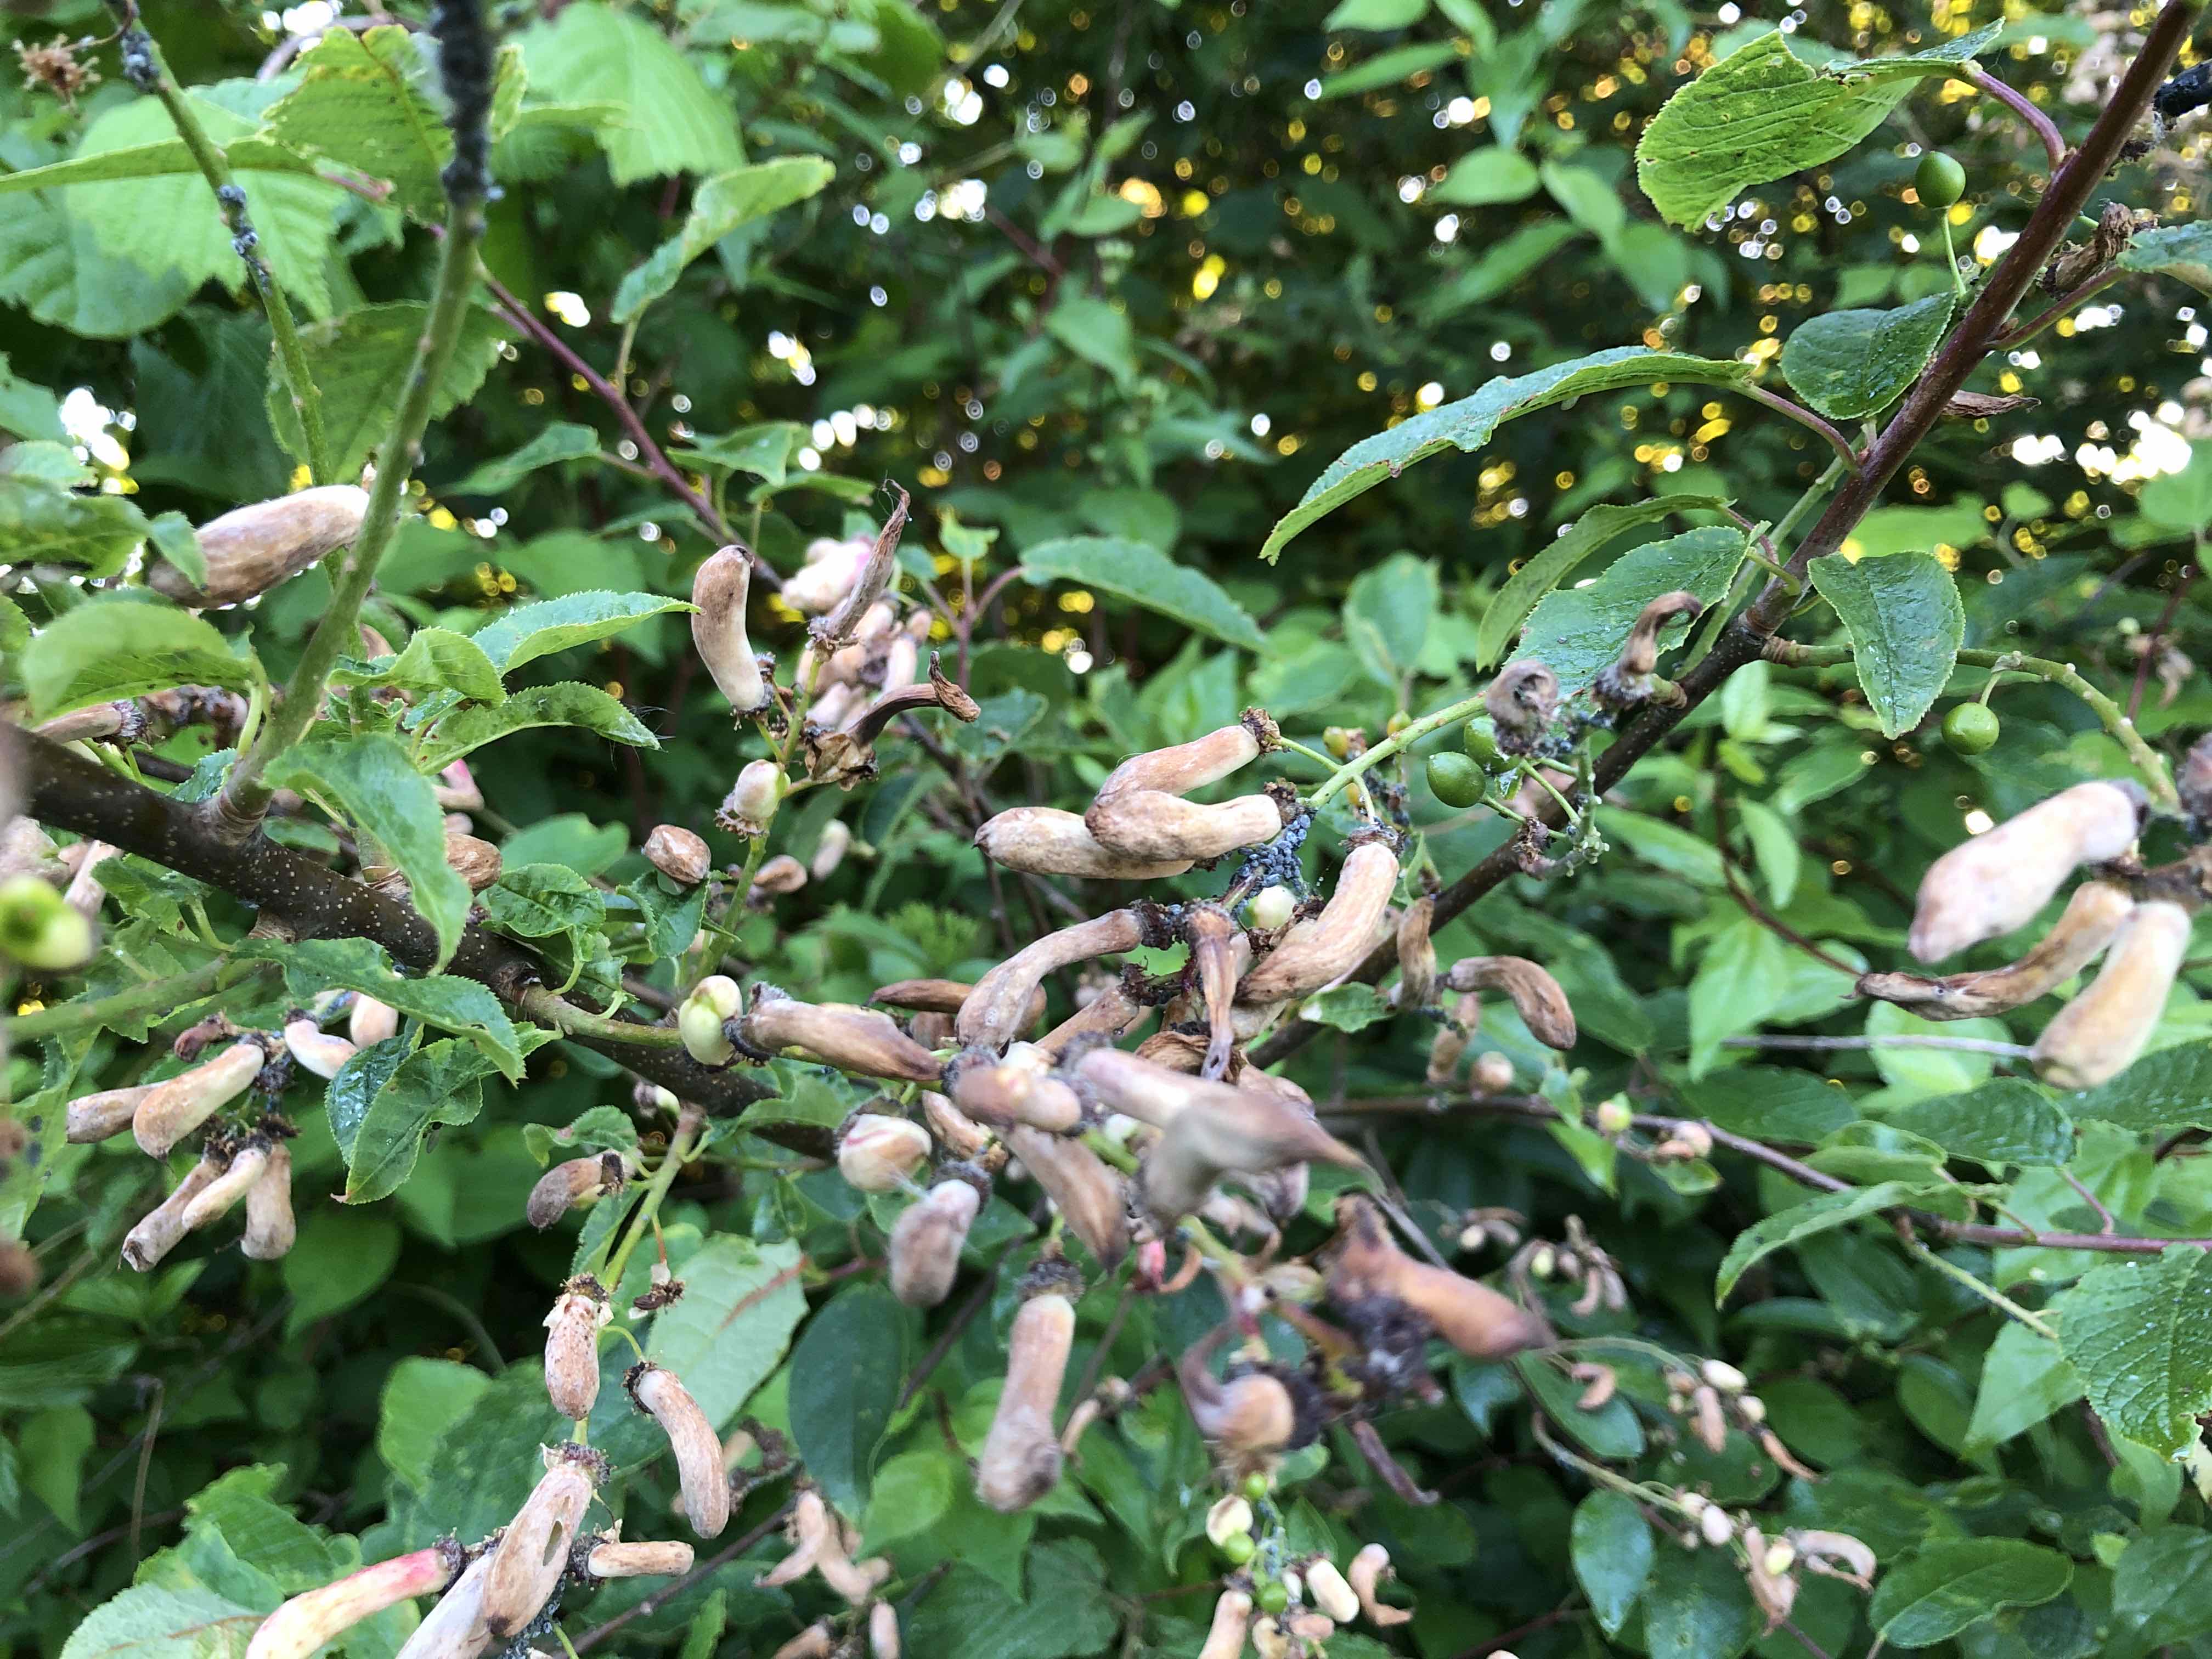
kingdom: Fungi
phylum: Ascomycota
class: Taphrinomycetes
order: Taphrinales
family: Taphrinaceae
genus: Taphrina
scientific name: Taphrina padi
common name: Bird cherry pocket
